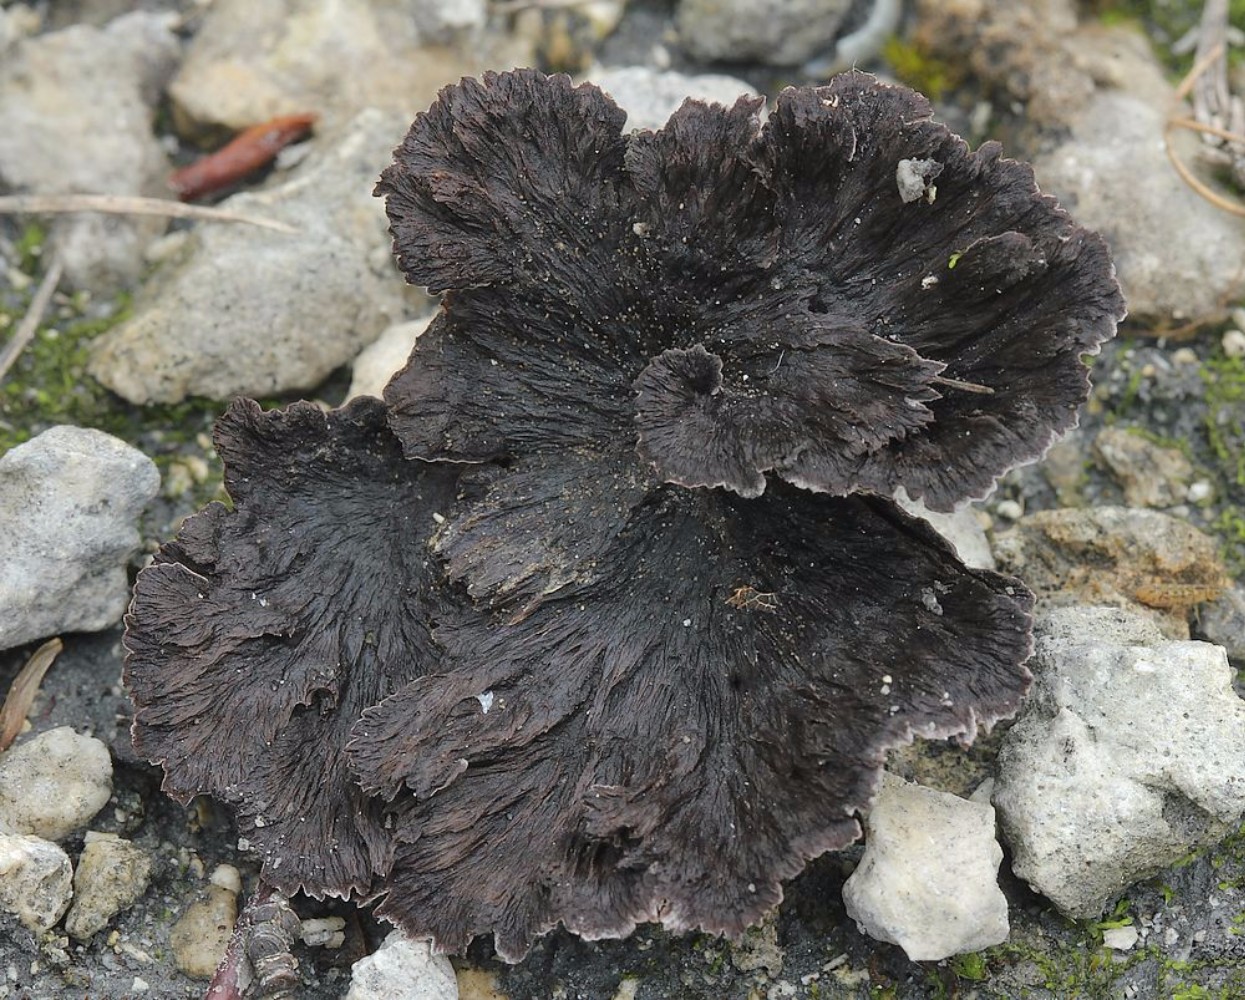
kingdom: Fungi
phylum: Basidiomycota
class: Agaricomycetes
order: Thelephorales
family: Thelephoraceae
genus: Thelephora
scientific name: Thelephora caryophyllea
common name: tragt-frynsesvamp
